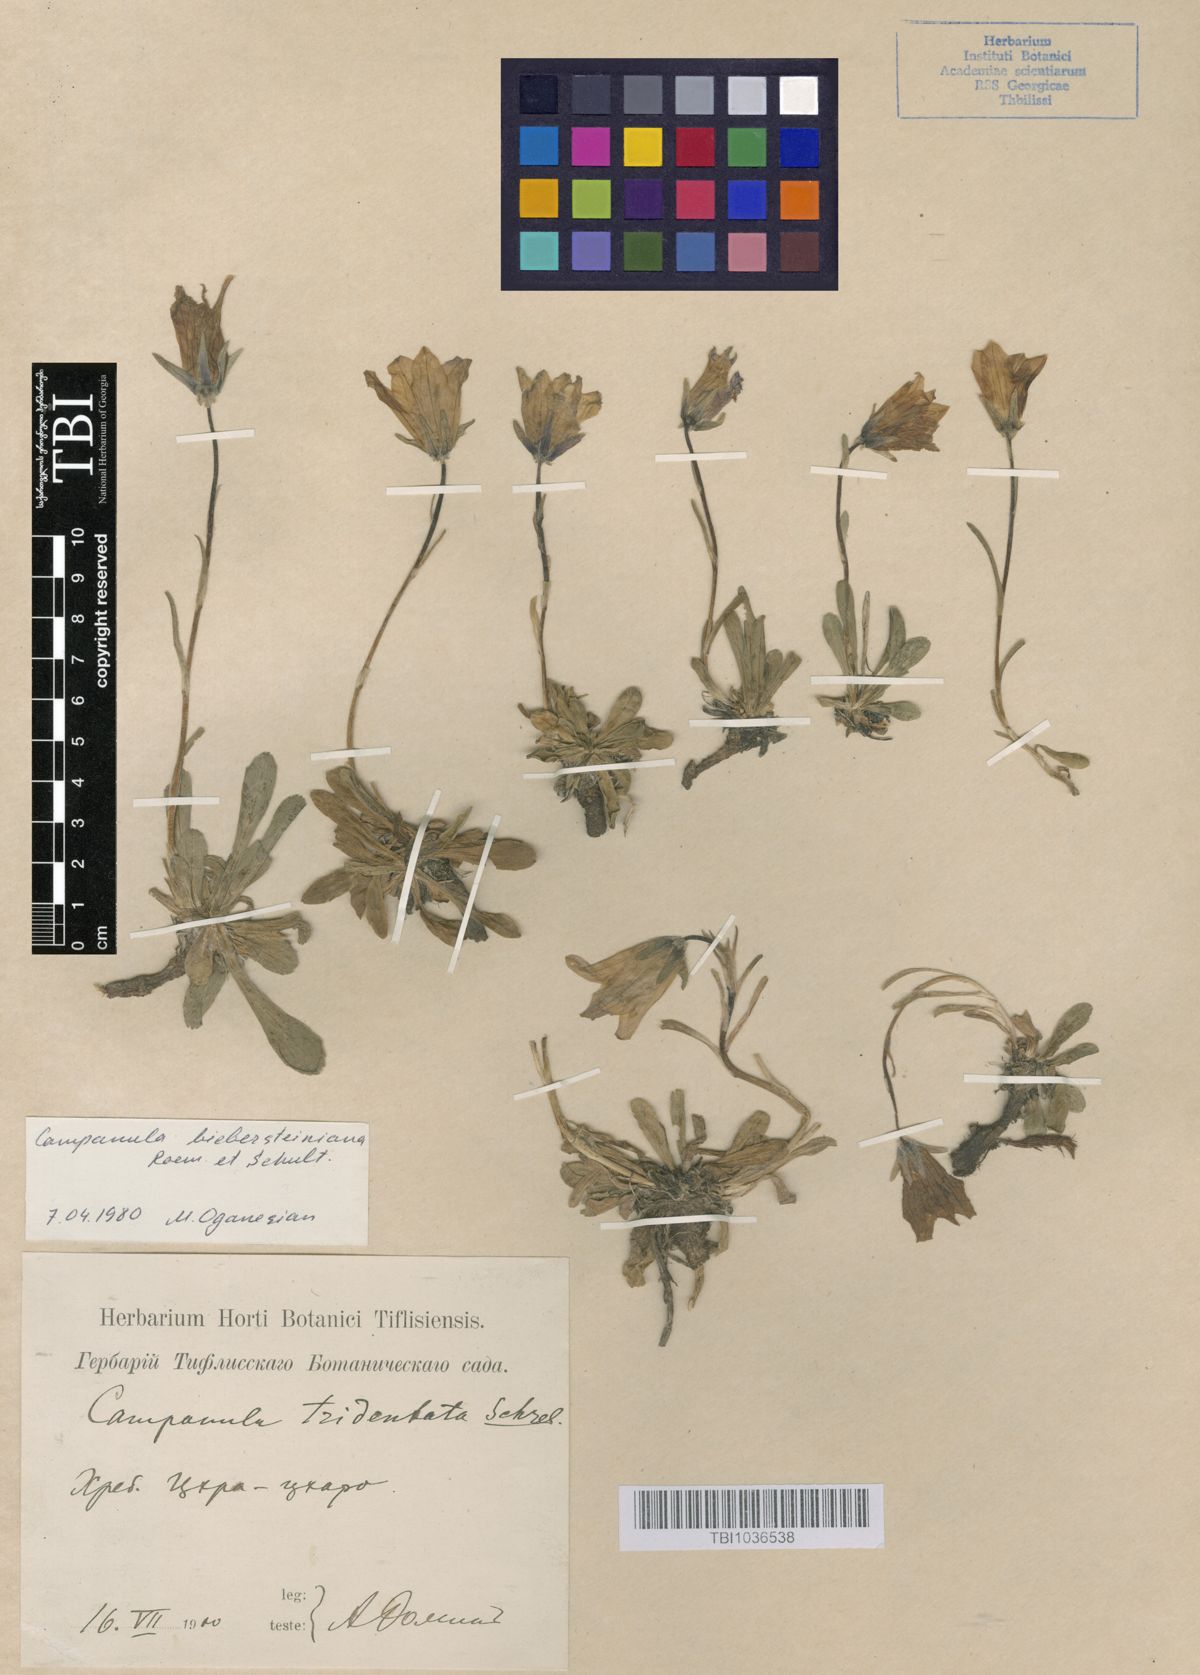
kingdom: Plantae
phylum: Tracheophyta
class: Magnoliopsida
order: Asterales
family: Campanulaceae
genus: Campanula
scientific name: Campanula tridentata
